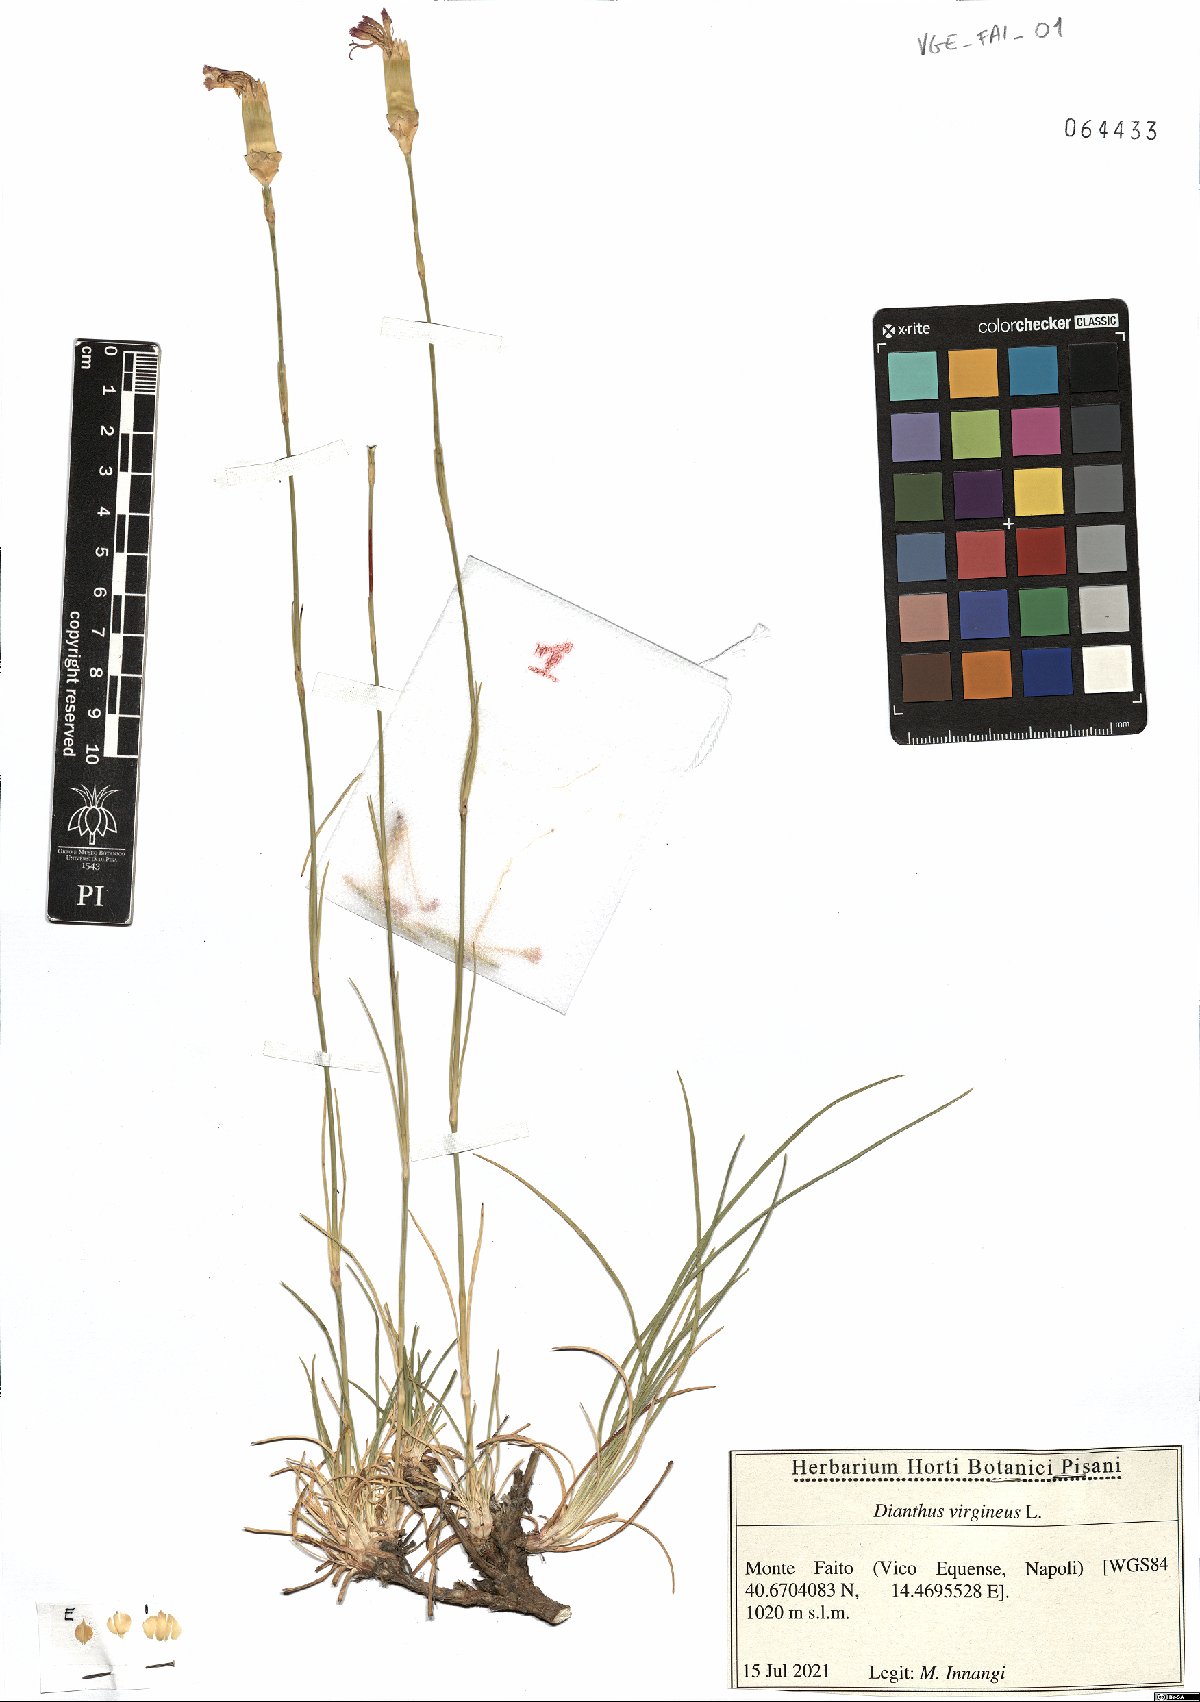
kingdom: Plantae
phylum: Tracheophyta
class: Magnoliopsida
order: Caryophyllales
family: Caryophyllaceae
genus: Dianthus
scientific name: Dianthus virgineus
